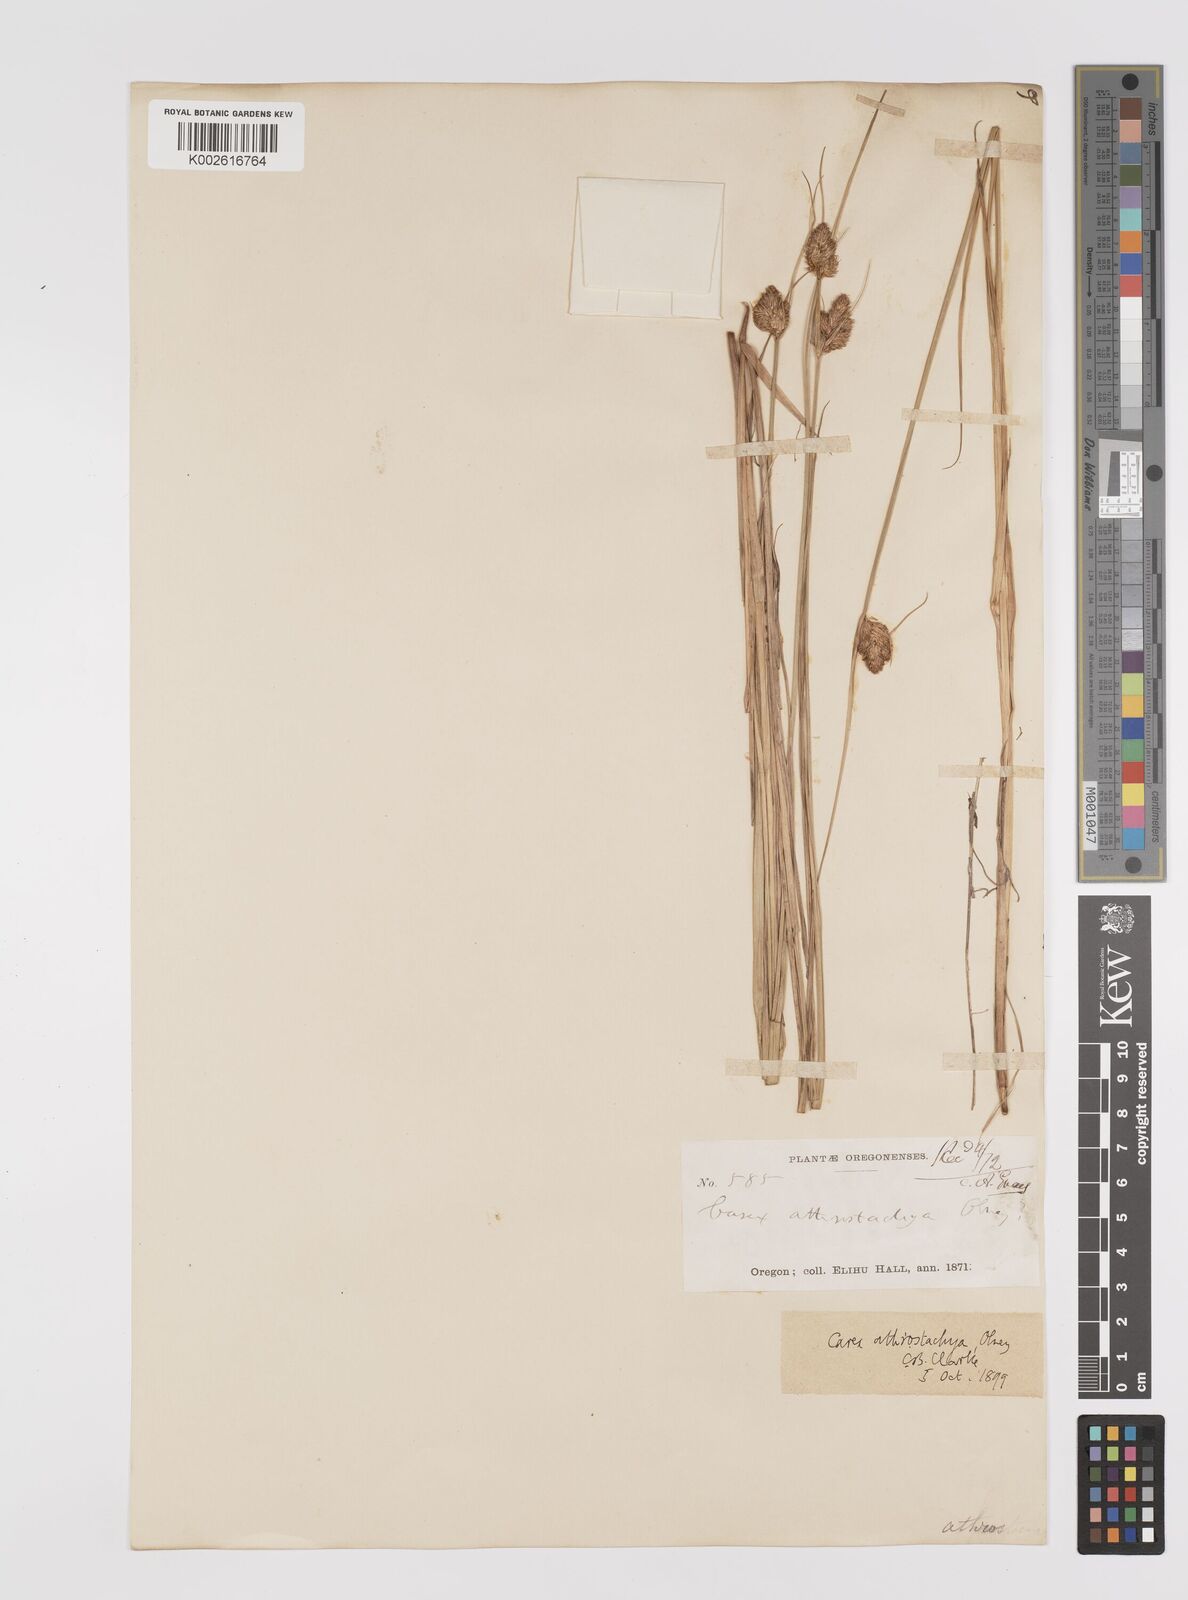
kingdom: Plantae
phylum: Tracheophyta
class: Liliopsida
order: Poales
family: Cyperaceae
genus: Carex
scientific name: Carex athrostachya
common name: Slenderbeak sedge
